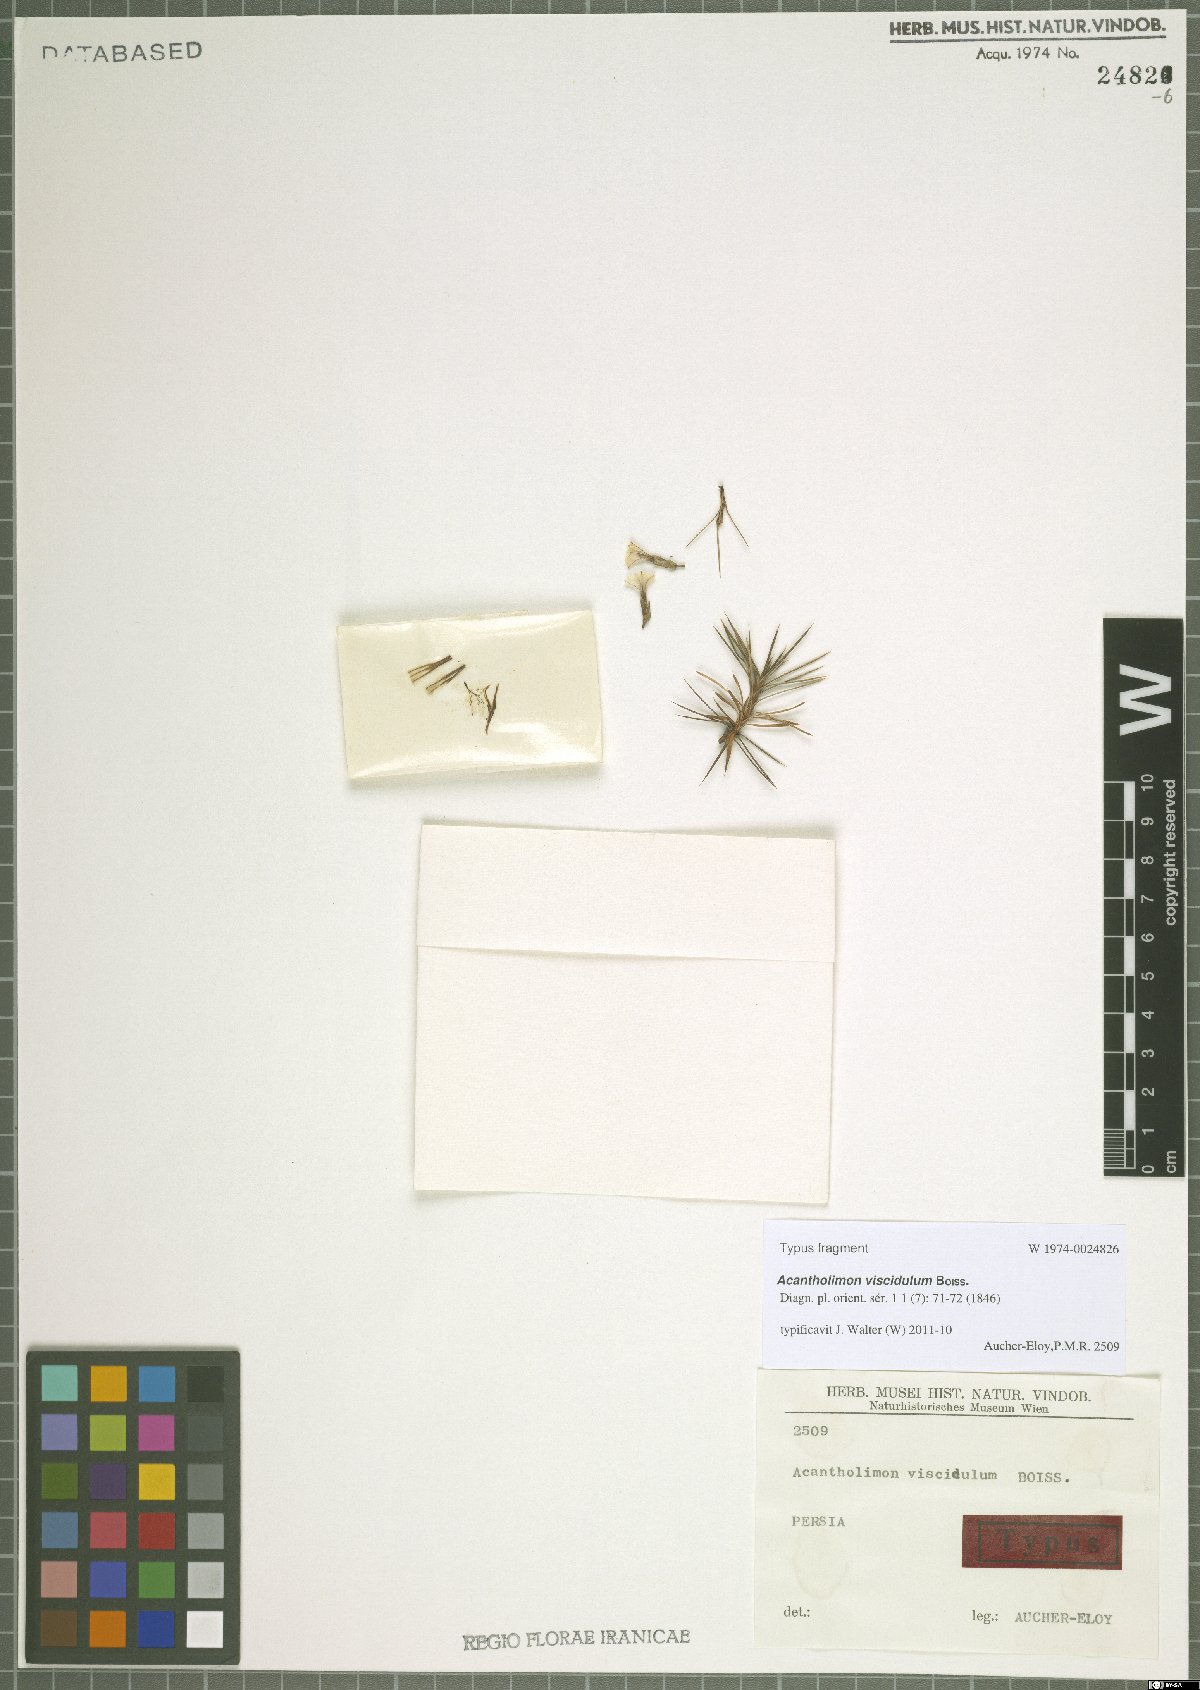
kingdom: Plantae
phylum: Tracheophyta
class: Magnoliopsida
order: Caryophyllales
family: Plumbaginaceae
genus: Acantholimon
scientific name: Acantholimon viscidulum
